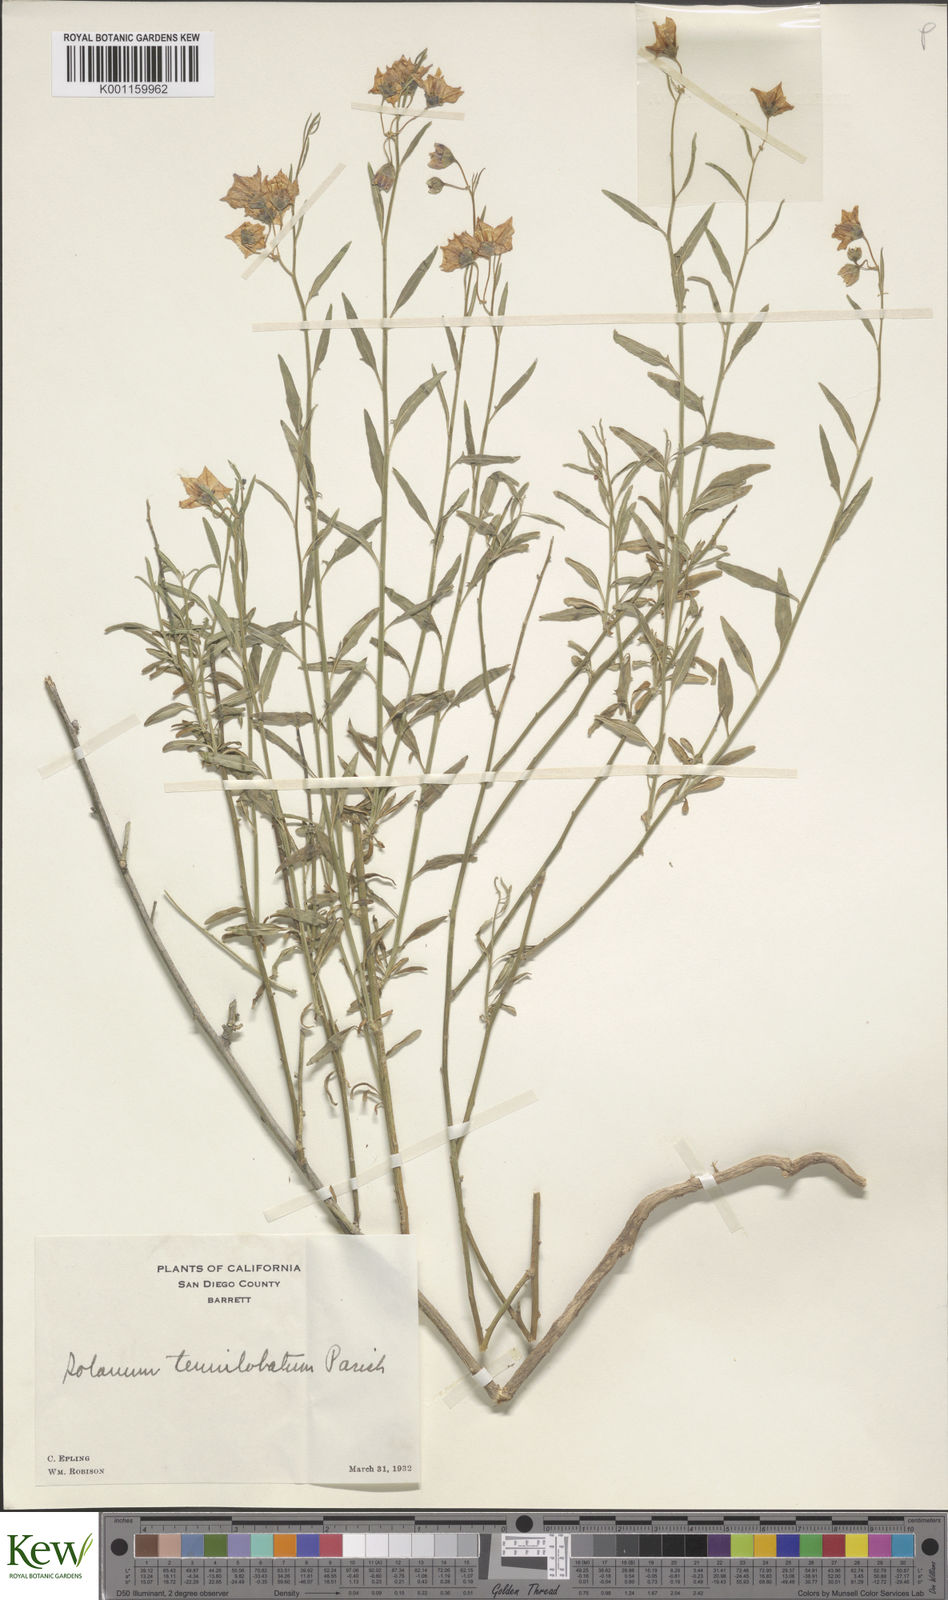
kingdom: Plantae
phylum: Tracheophyta
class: Magnoliopsida
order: Solanales
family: Solanaceae
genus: Solanum
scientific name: Solanum umbelliferum
